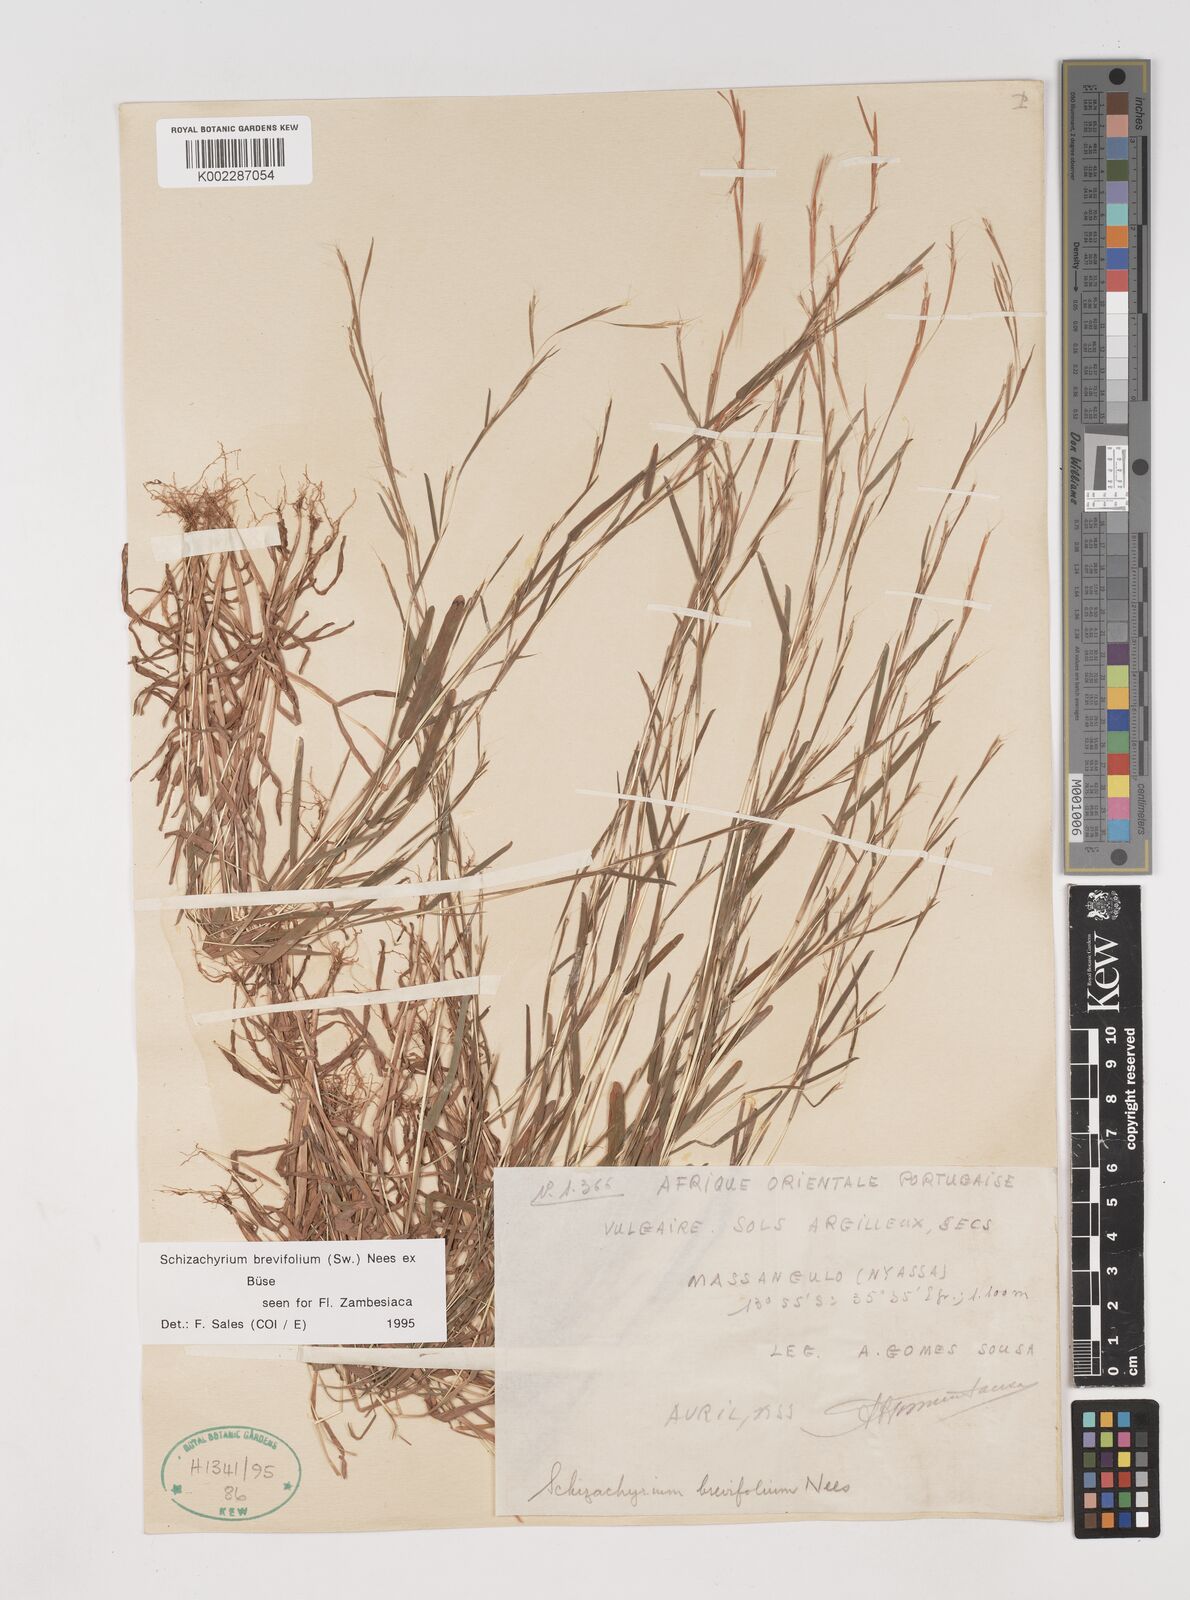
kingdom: Plantae
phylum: Tracheophyta
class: Liliopsida
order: Poales
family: Poaceae
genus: Schizachyrium
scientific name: Schizachyrium brevifolium
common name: Serillo dulce
